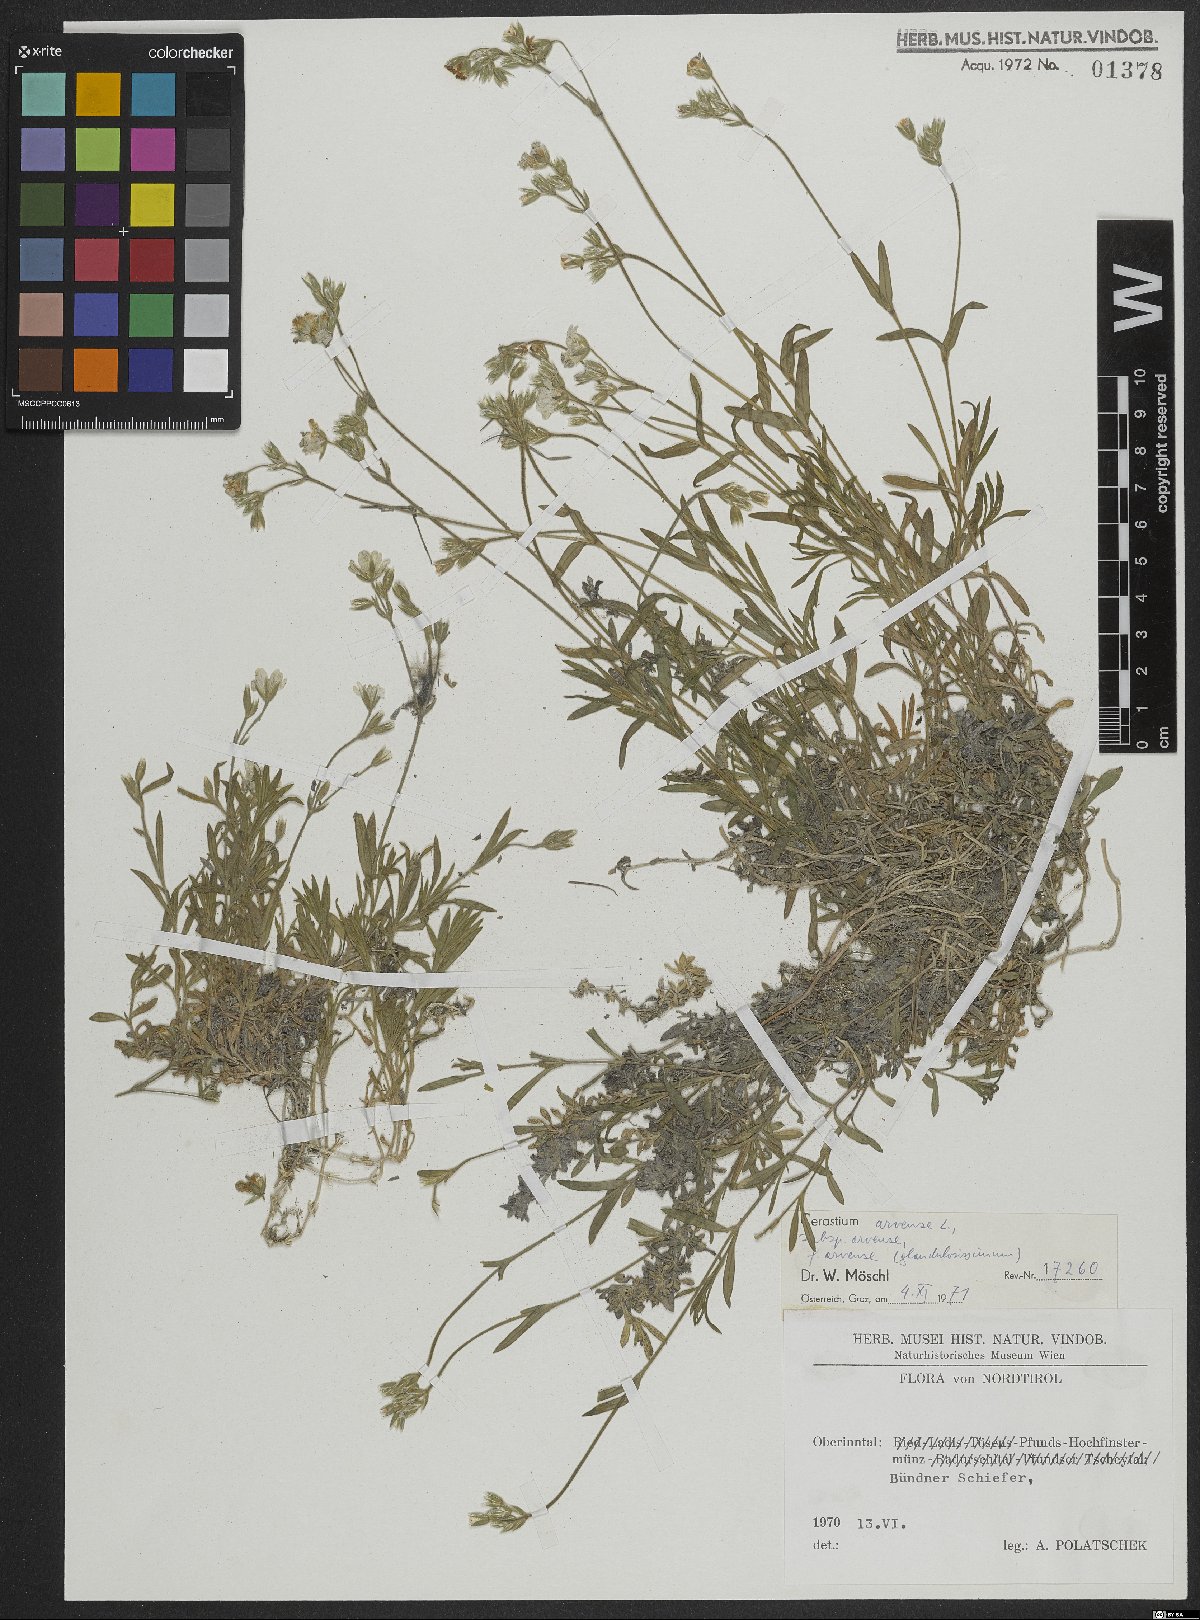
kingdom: Plantae
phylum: Tracheophyta
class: Magnoliopsida
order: Caryophyllales
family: Caryophyllaceae
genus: Cerastium
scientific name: Cerastium arvense
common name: Field mouse-ear
